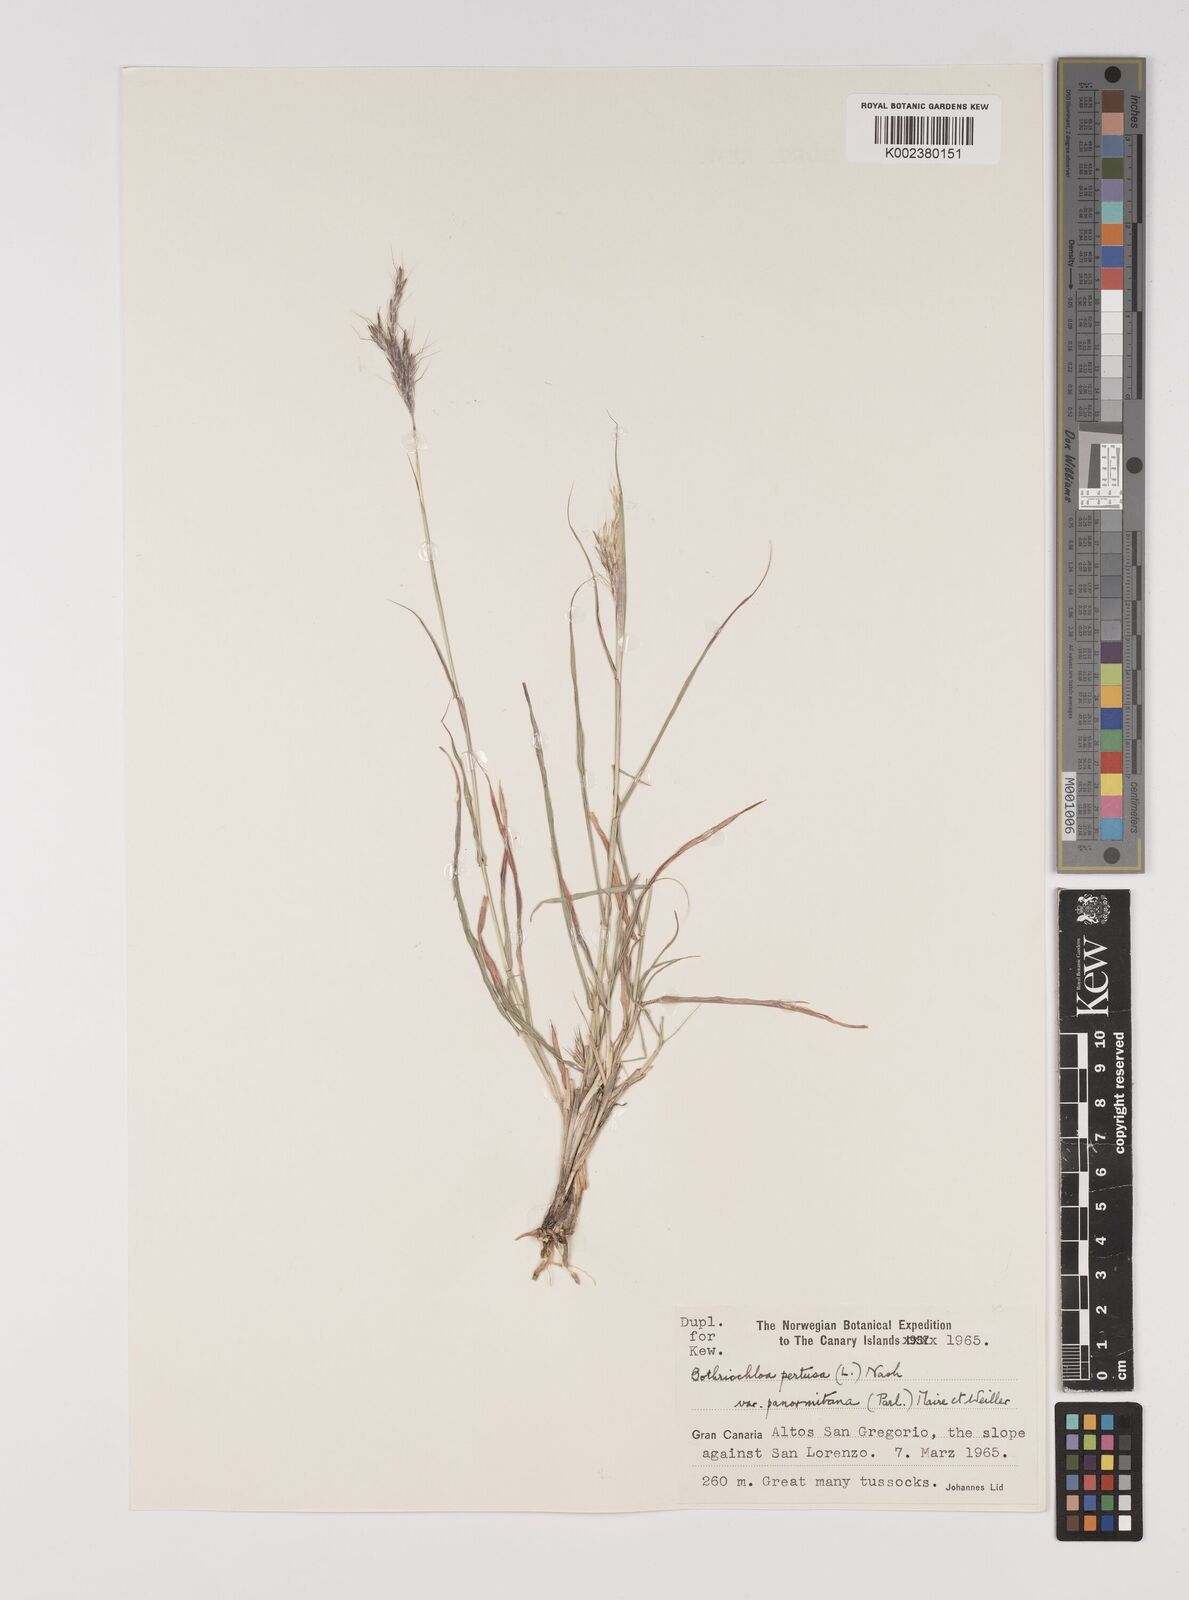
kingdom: Plantae
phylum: Tracheophyta
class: Liliopsida
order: Poales
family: Poaceae
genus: Bothriochloa
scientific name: Bothriochloa insculpta
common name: Creeping-bluegrass
